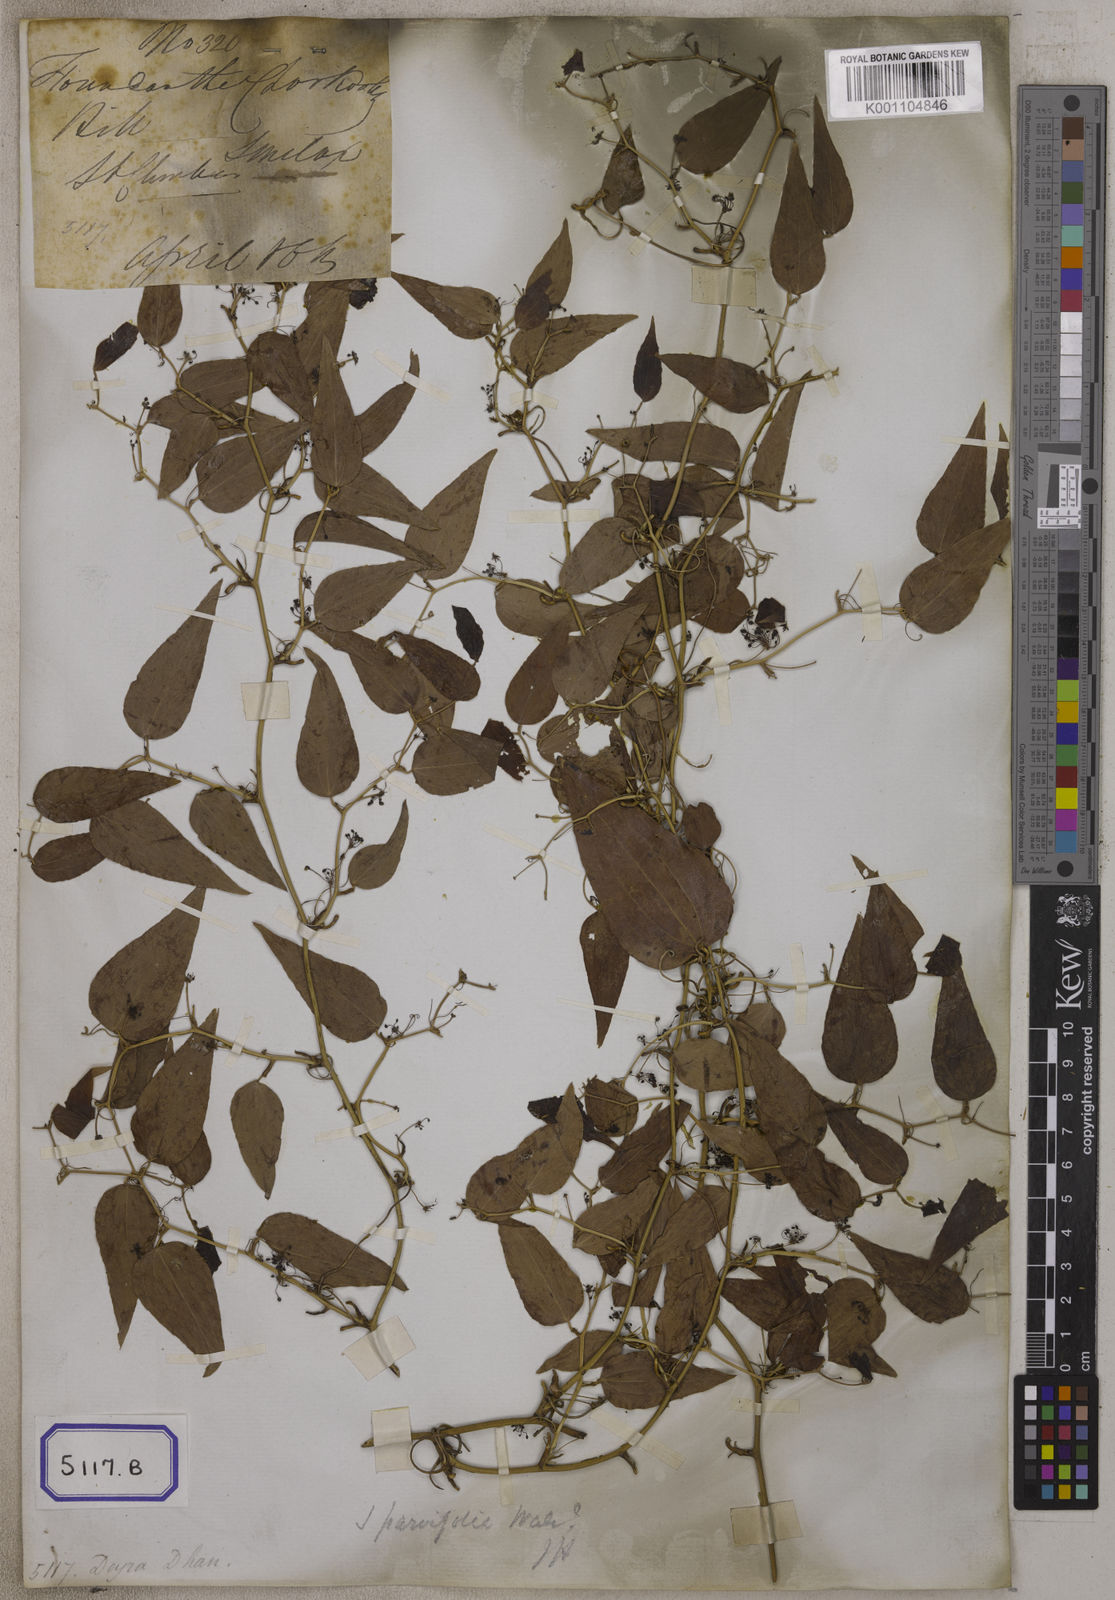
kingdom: Plantae
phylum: Tracheophyta
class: Liliopsida
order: Liliales
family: Smilacaceae
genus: Smilax
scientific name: Smilax
